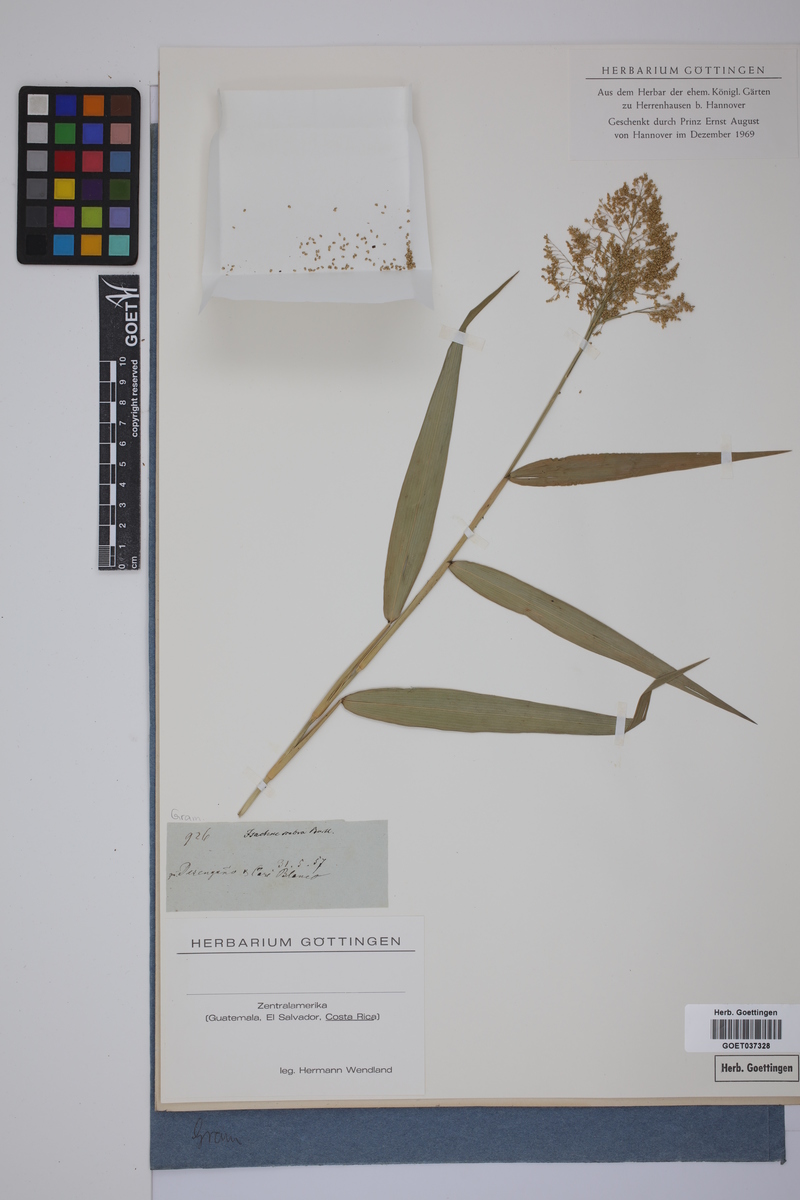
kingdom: Plantae
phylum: Tracheophyta
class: Liliopsida
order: Poales
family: Poaceae
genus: Isachne
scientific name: Isachne
